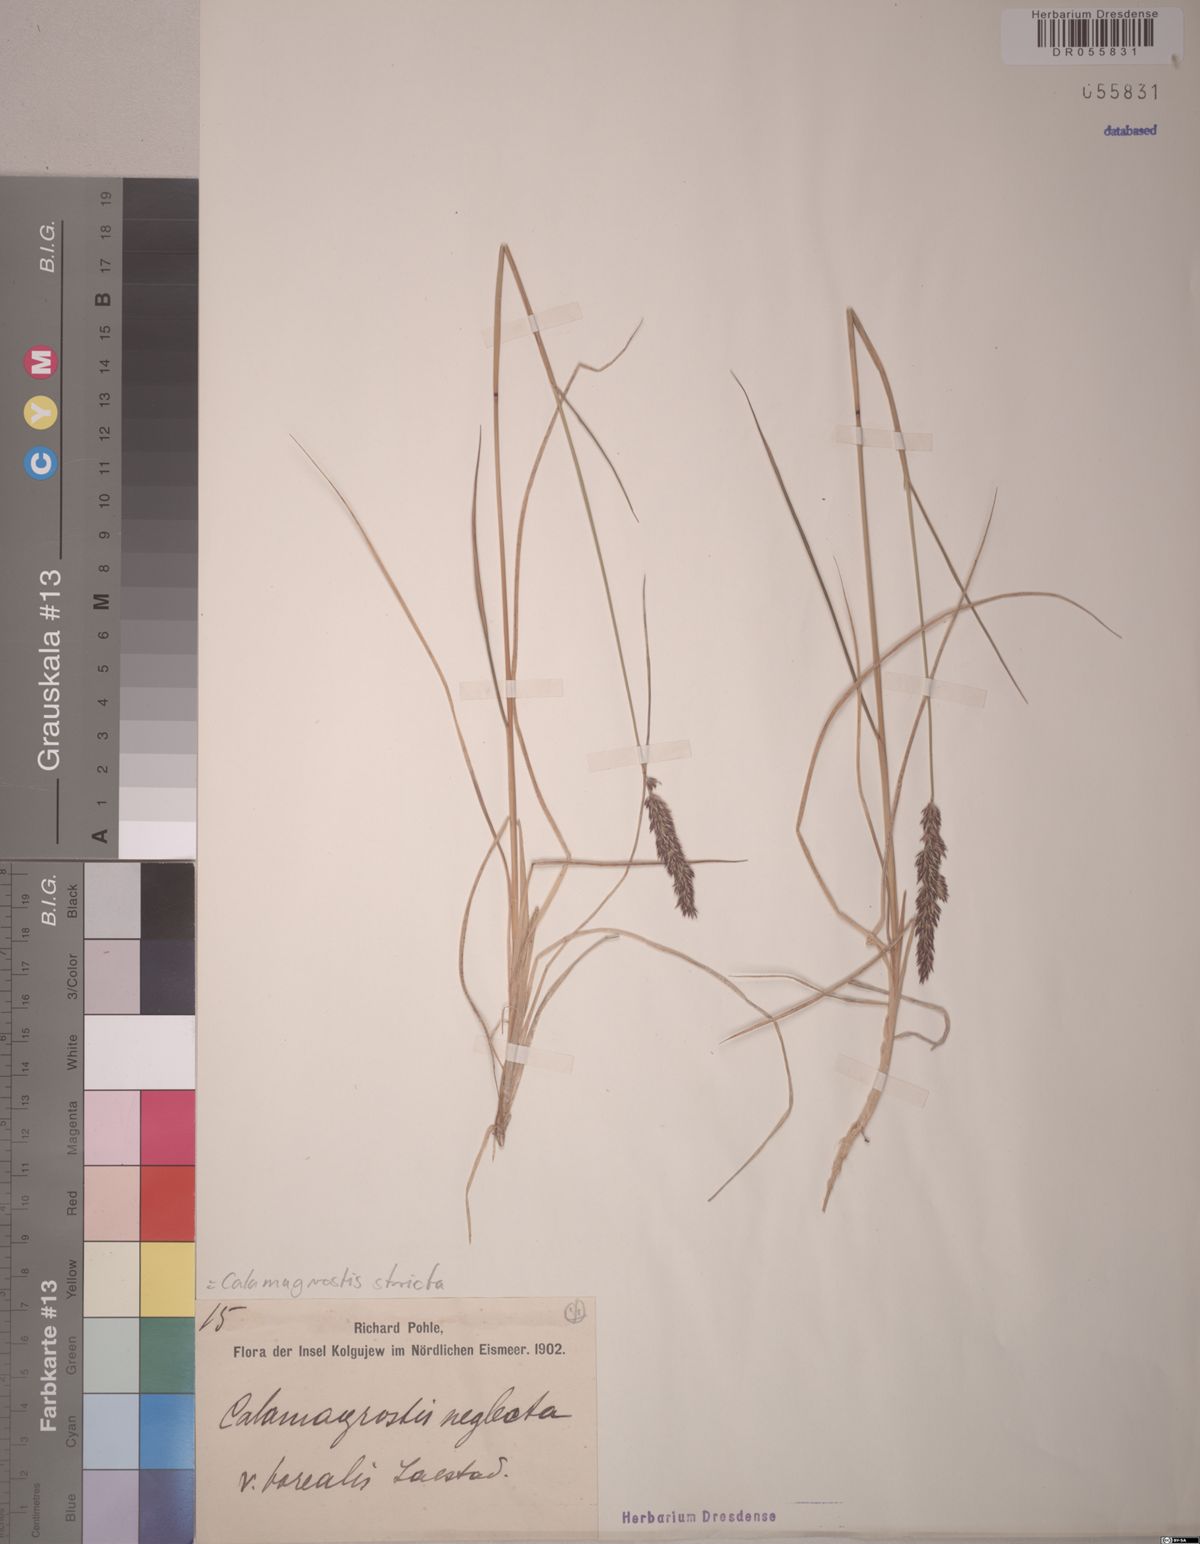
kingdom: Plantae
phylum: Tracheophyta
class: Liliopsida
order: Poales
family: Poaceae
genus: Calamagrostis
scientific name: Calamagrostis stricta
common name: Narrow small-reed
